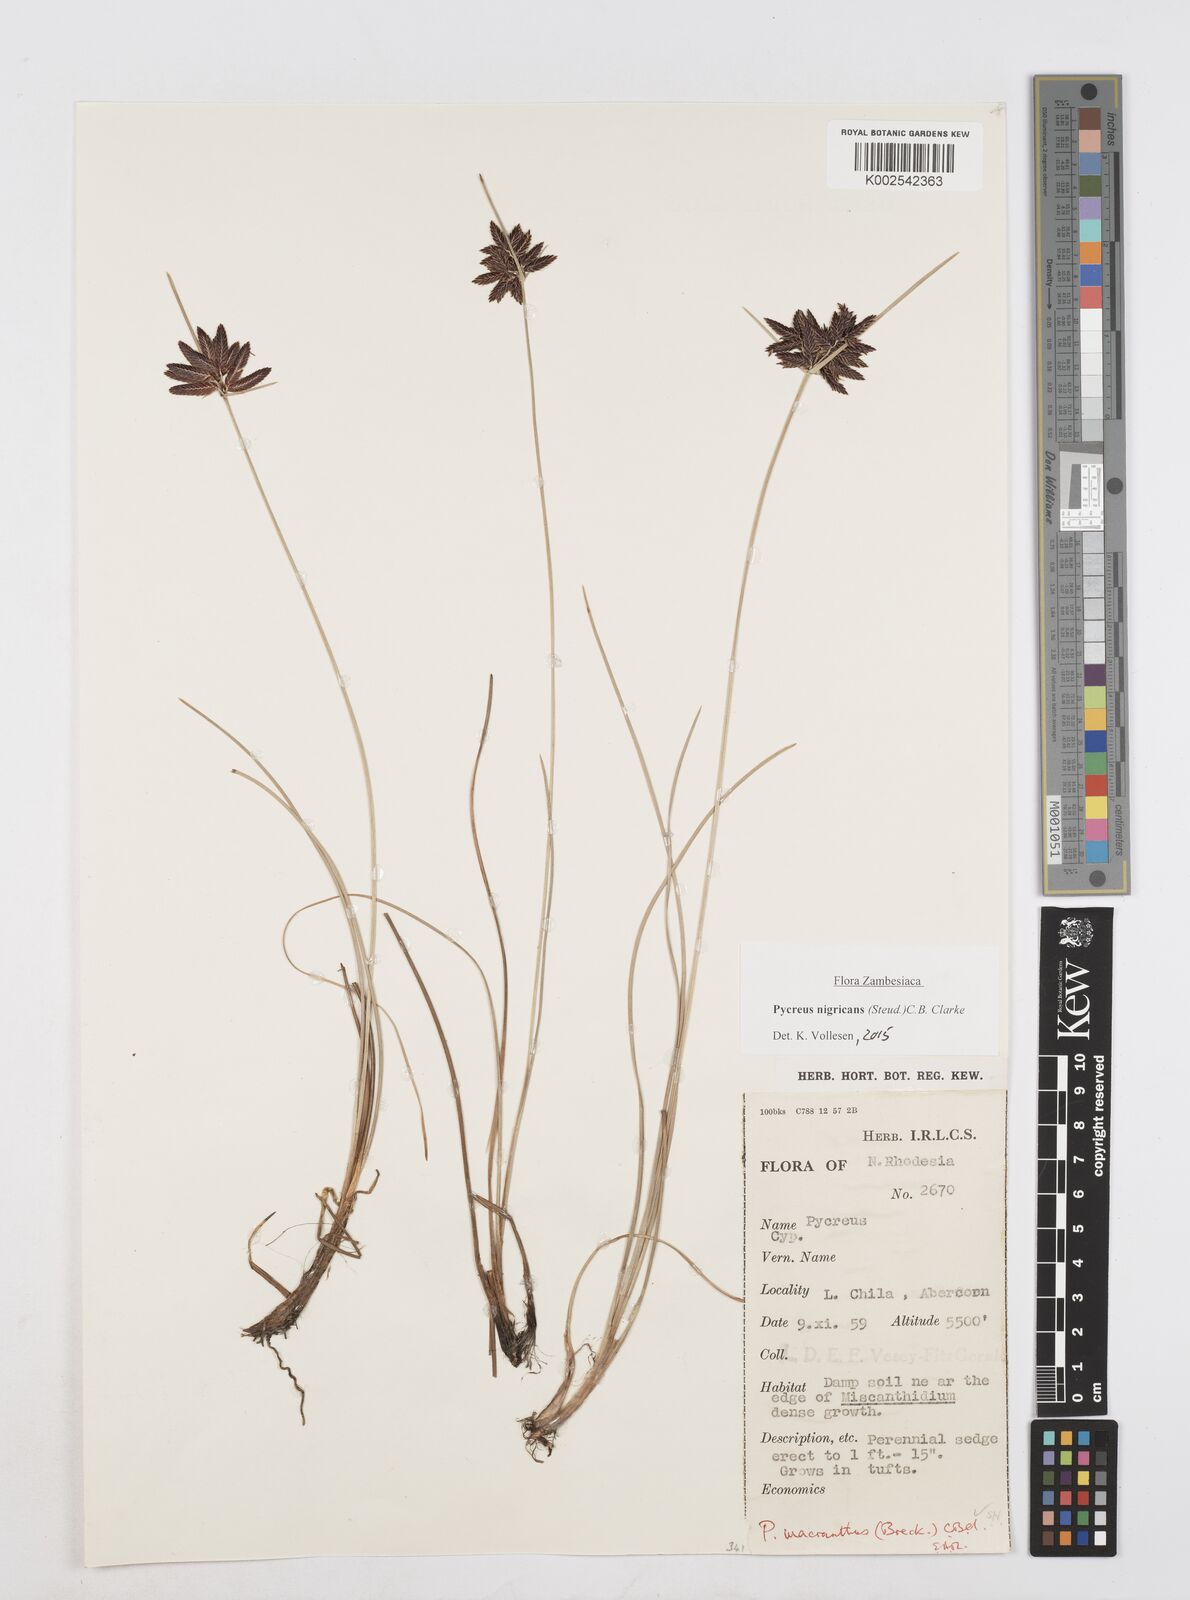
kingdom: Plantae
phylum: Tracheophyta
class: Liliopsida
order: Poales
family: Cyperaceae
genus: Cyperus
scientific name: Cyperus nigricans
